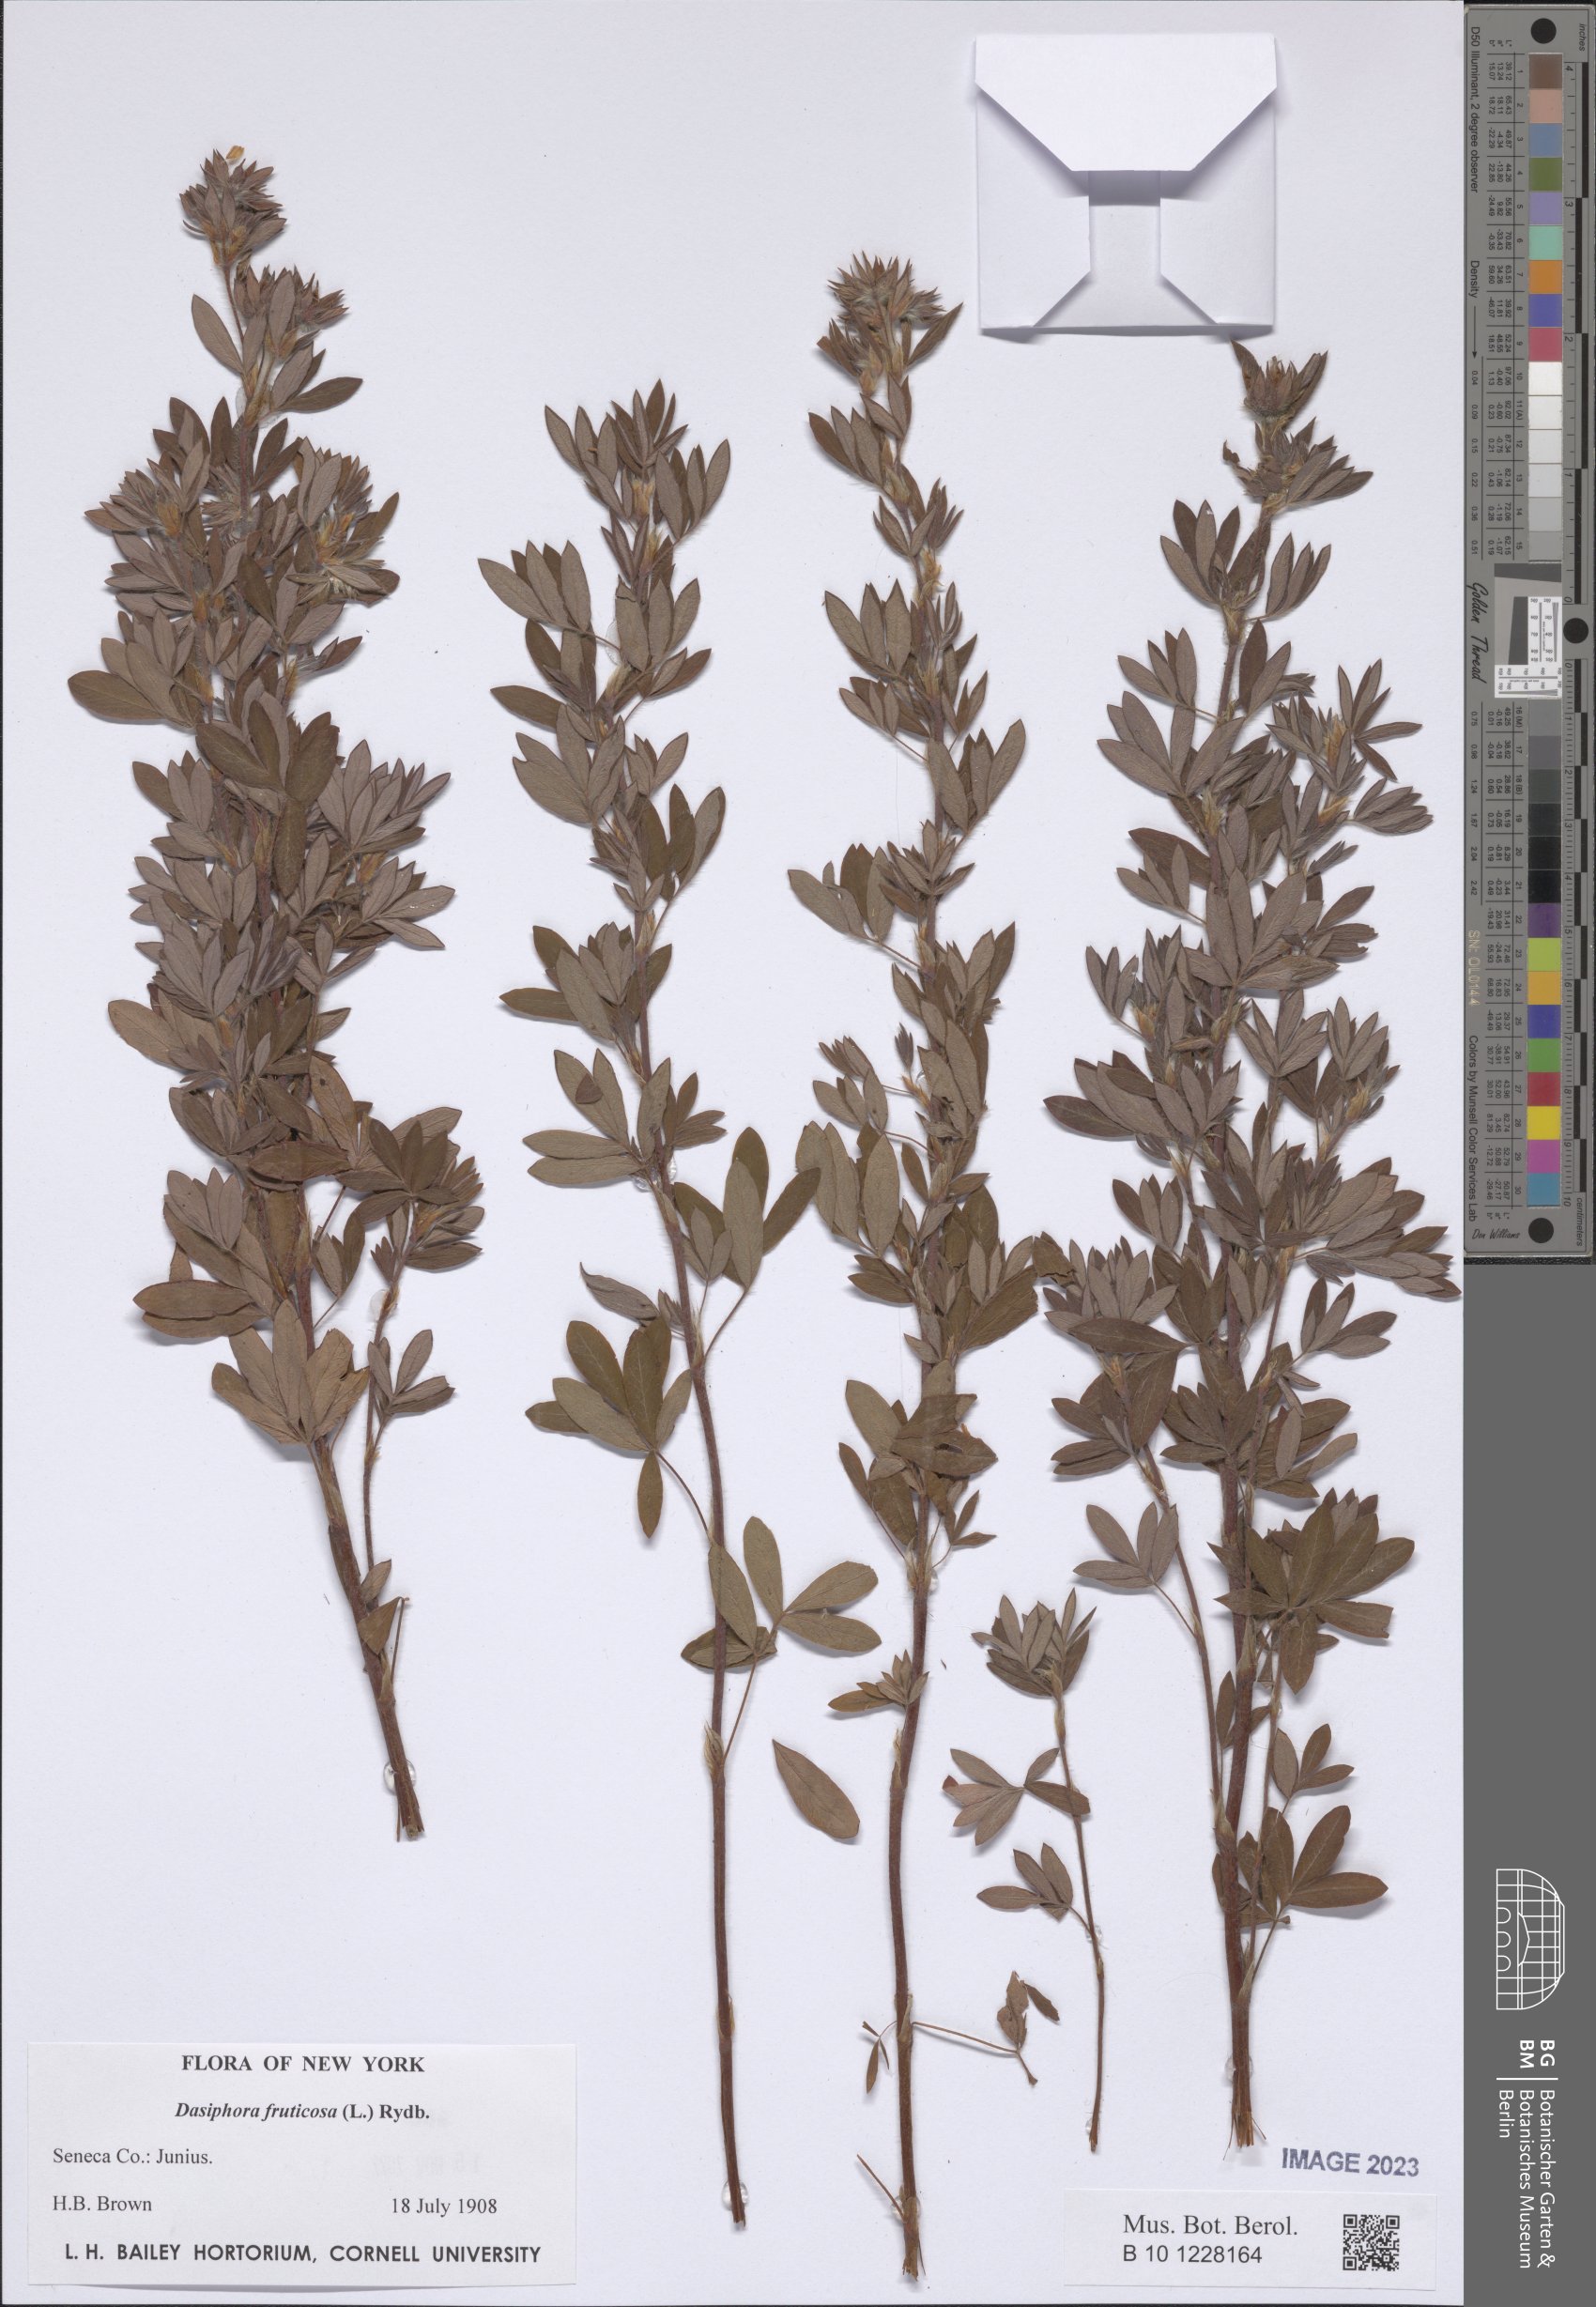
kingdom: Plantae
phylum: Tracheophyta
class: Magnoliopsida
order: Rosales
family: Rosaceae
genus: Dasiphora
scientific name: Dasiphora fruticosa
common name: Shrubby cinquefoil
